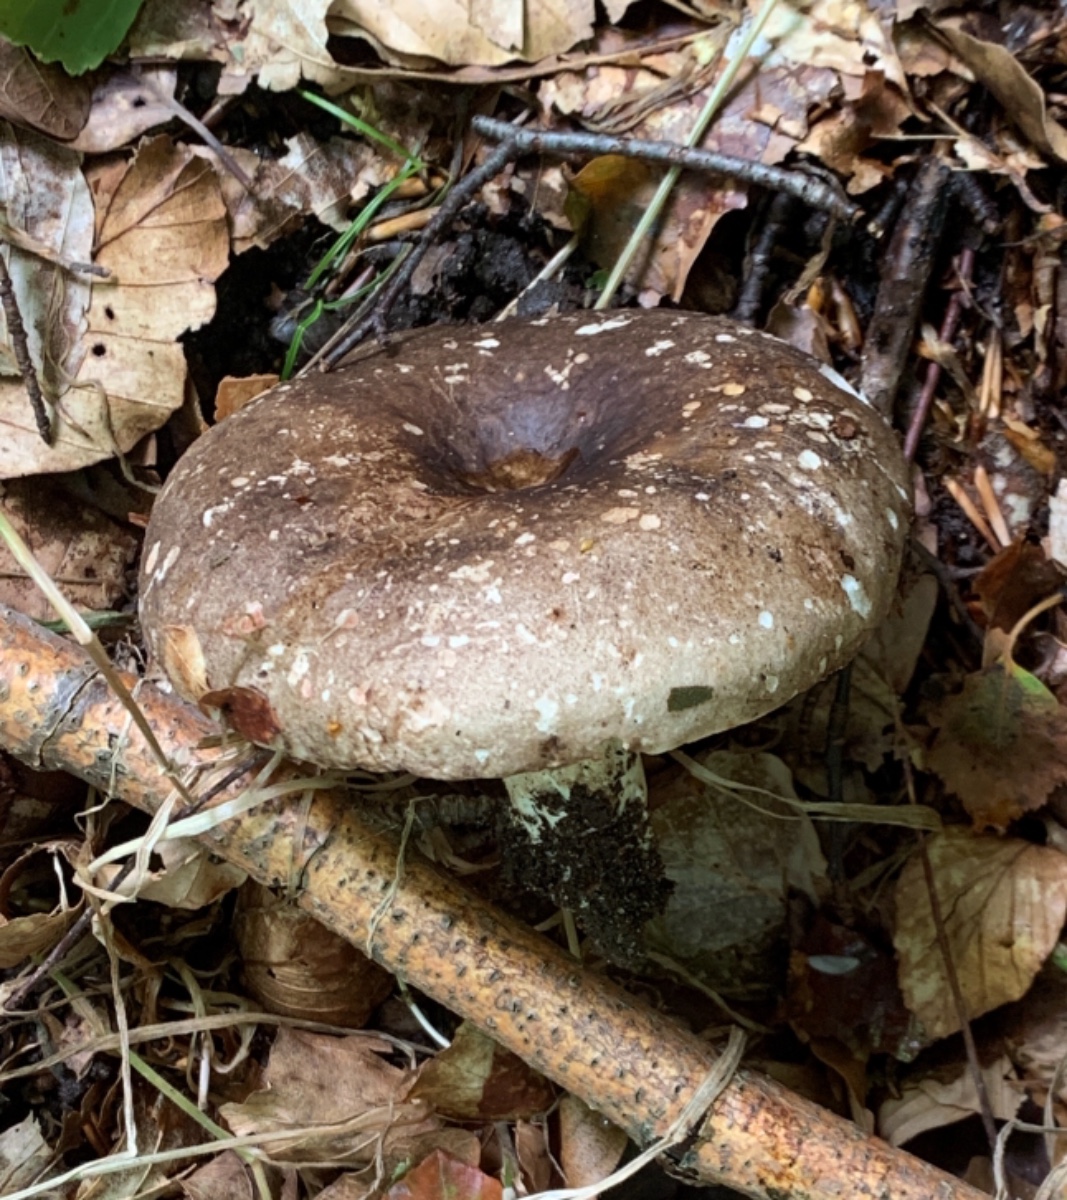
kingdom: Fungi
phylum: Basidiomycota
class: Agaricomycetes
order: Russulales
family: Russulaceae
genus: Russula
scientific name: Russula adusta
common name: sværtende skørhat
